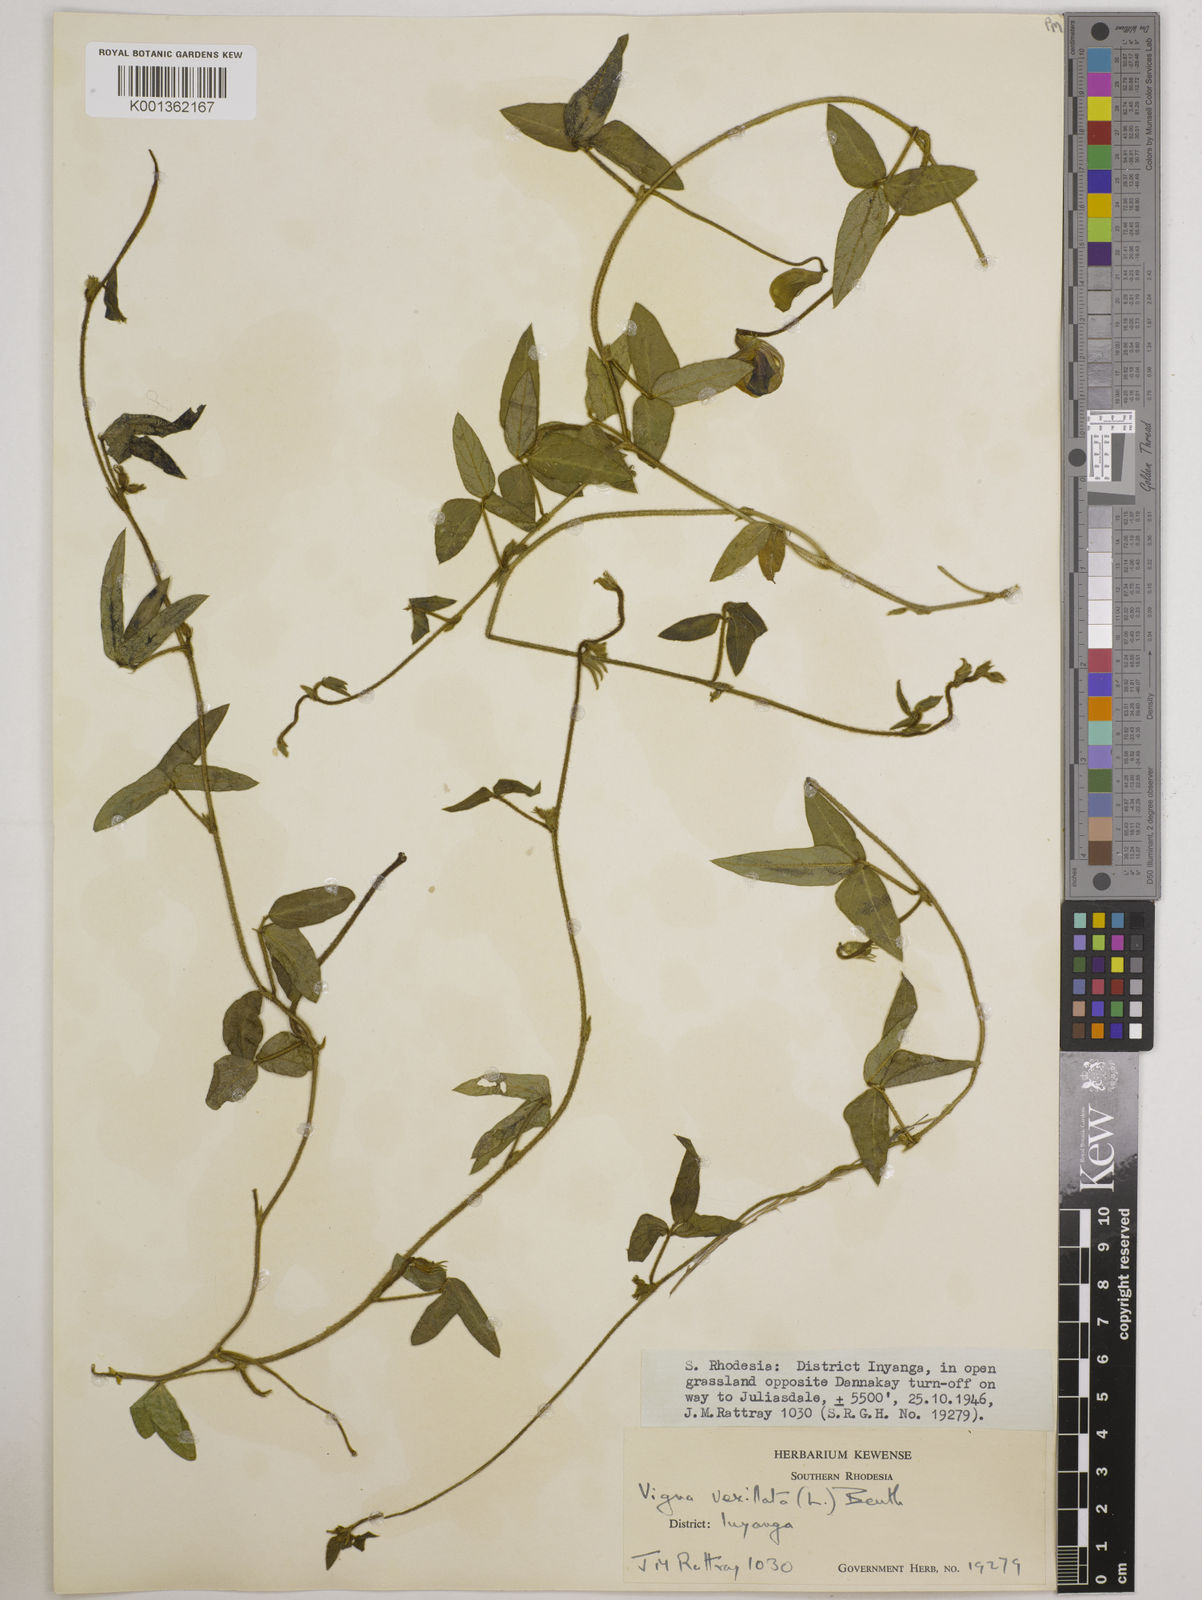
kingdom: Plantae
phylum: Tracheophyta
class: Magnoliopsida
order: Fabales
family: Fabaceae
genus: Vigna
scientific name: Vigna vexillata
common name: Zombi pea
